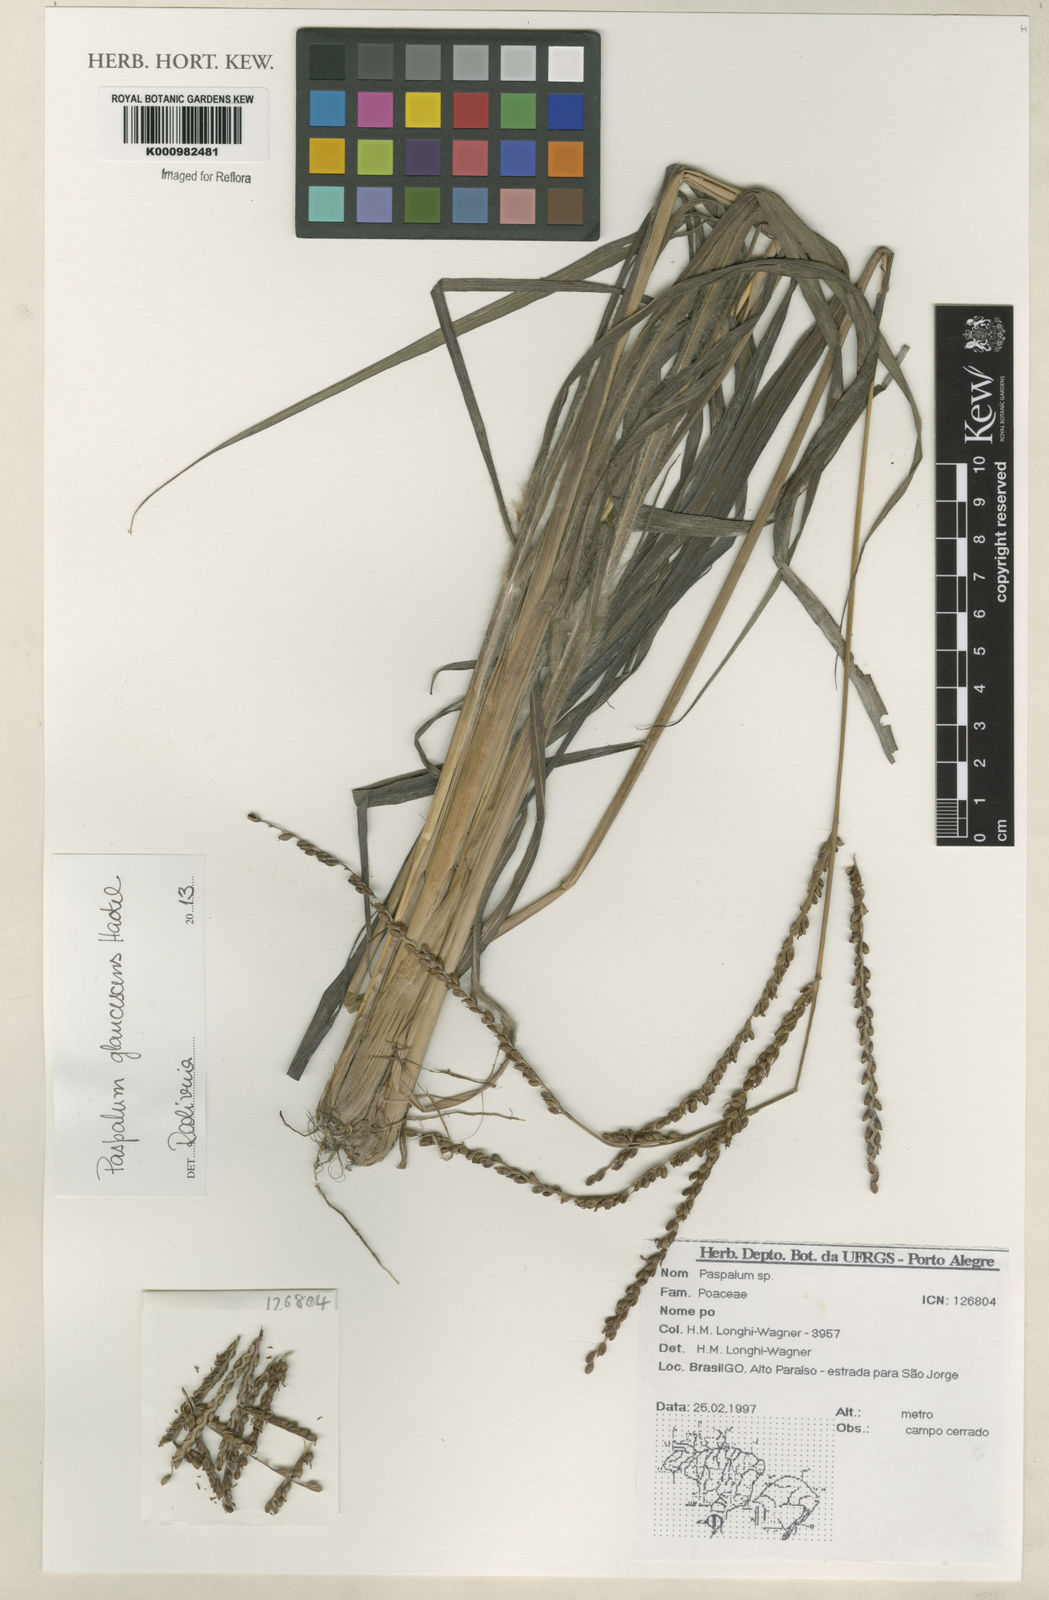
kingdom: Plantae
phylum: Tracheophyta
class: Liliopsida
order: Poales
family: Poaceae
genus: Paspalum
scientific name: Paspalum glaucescens
